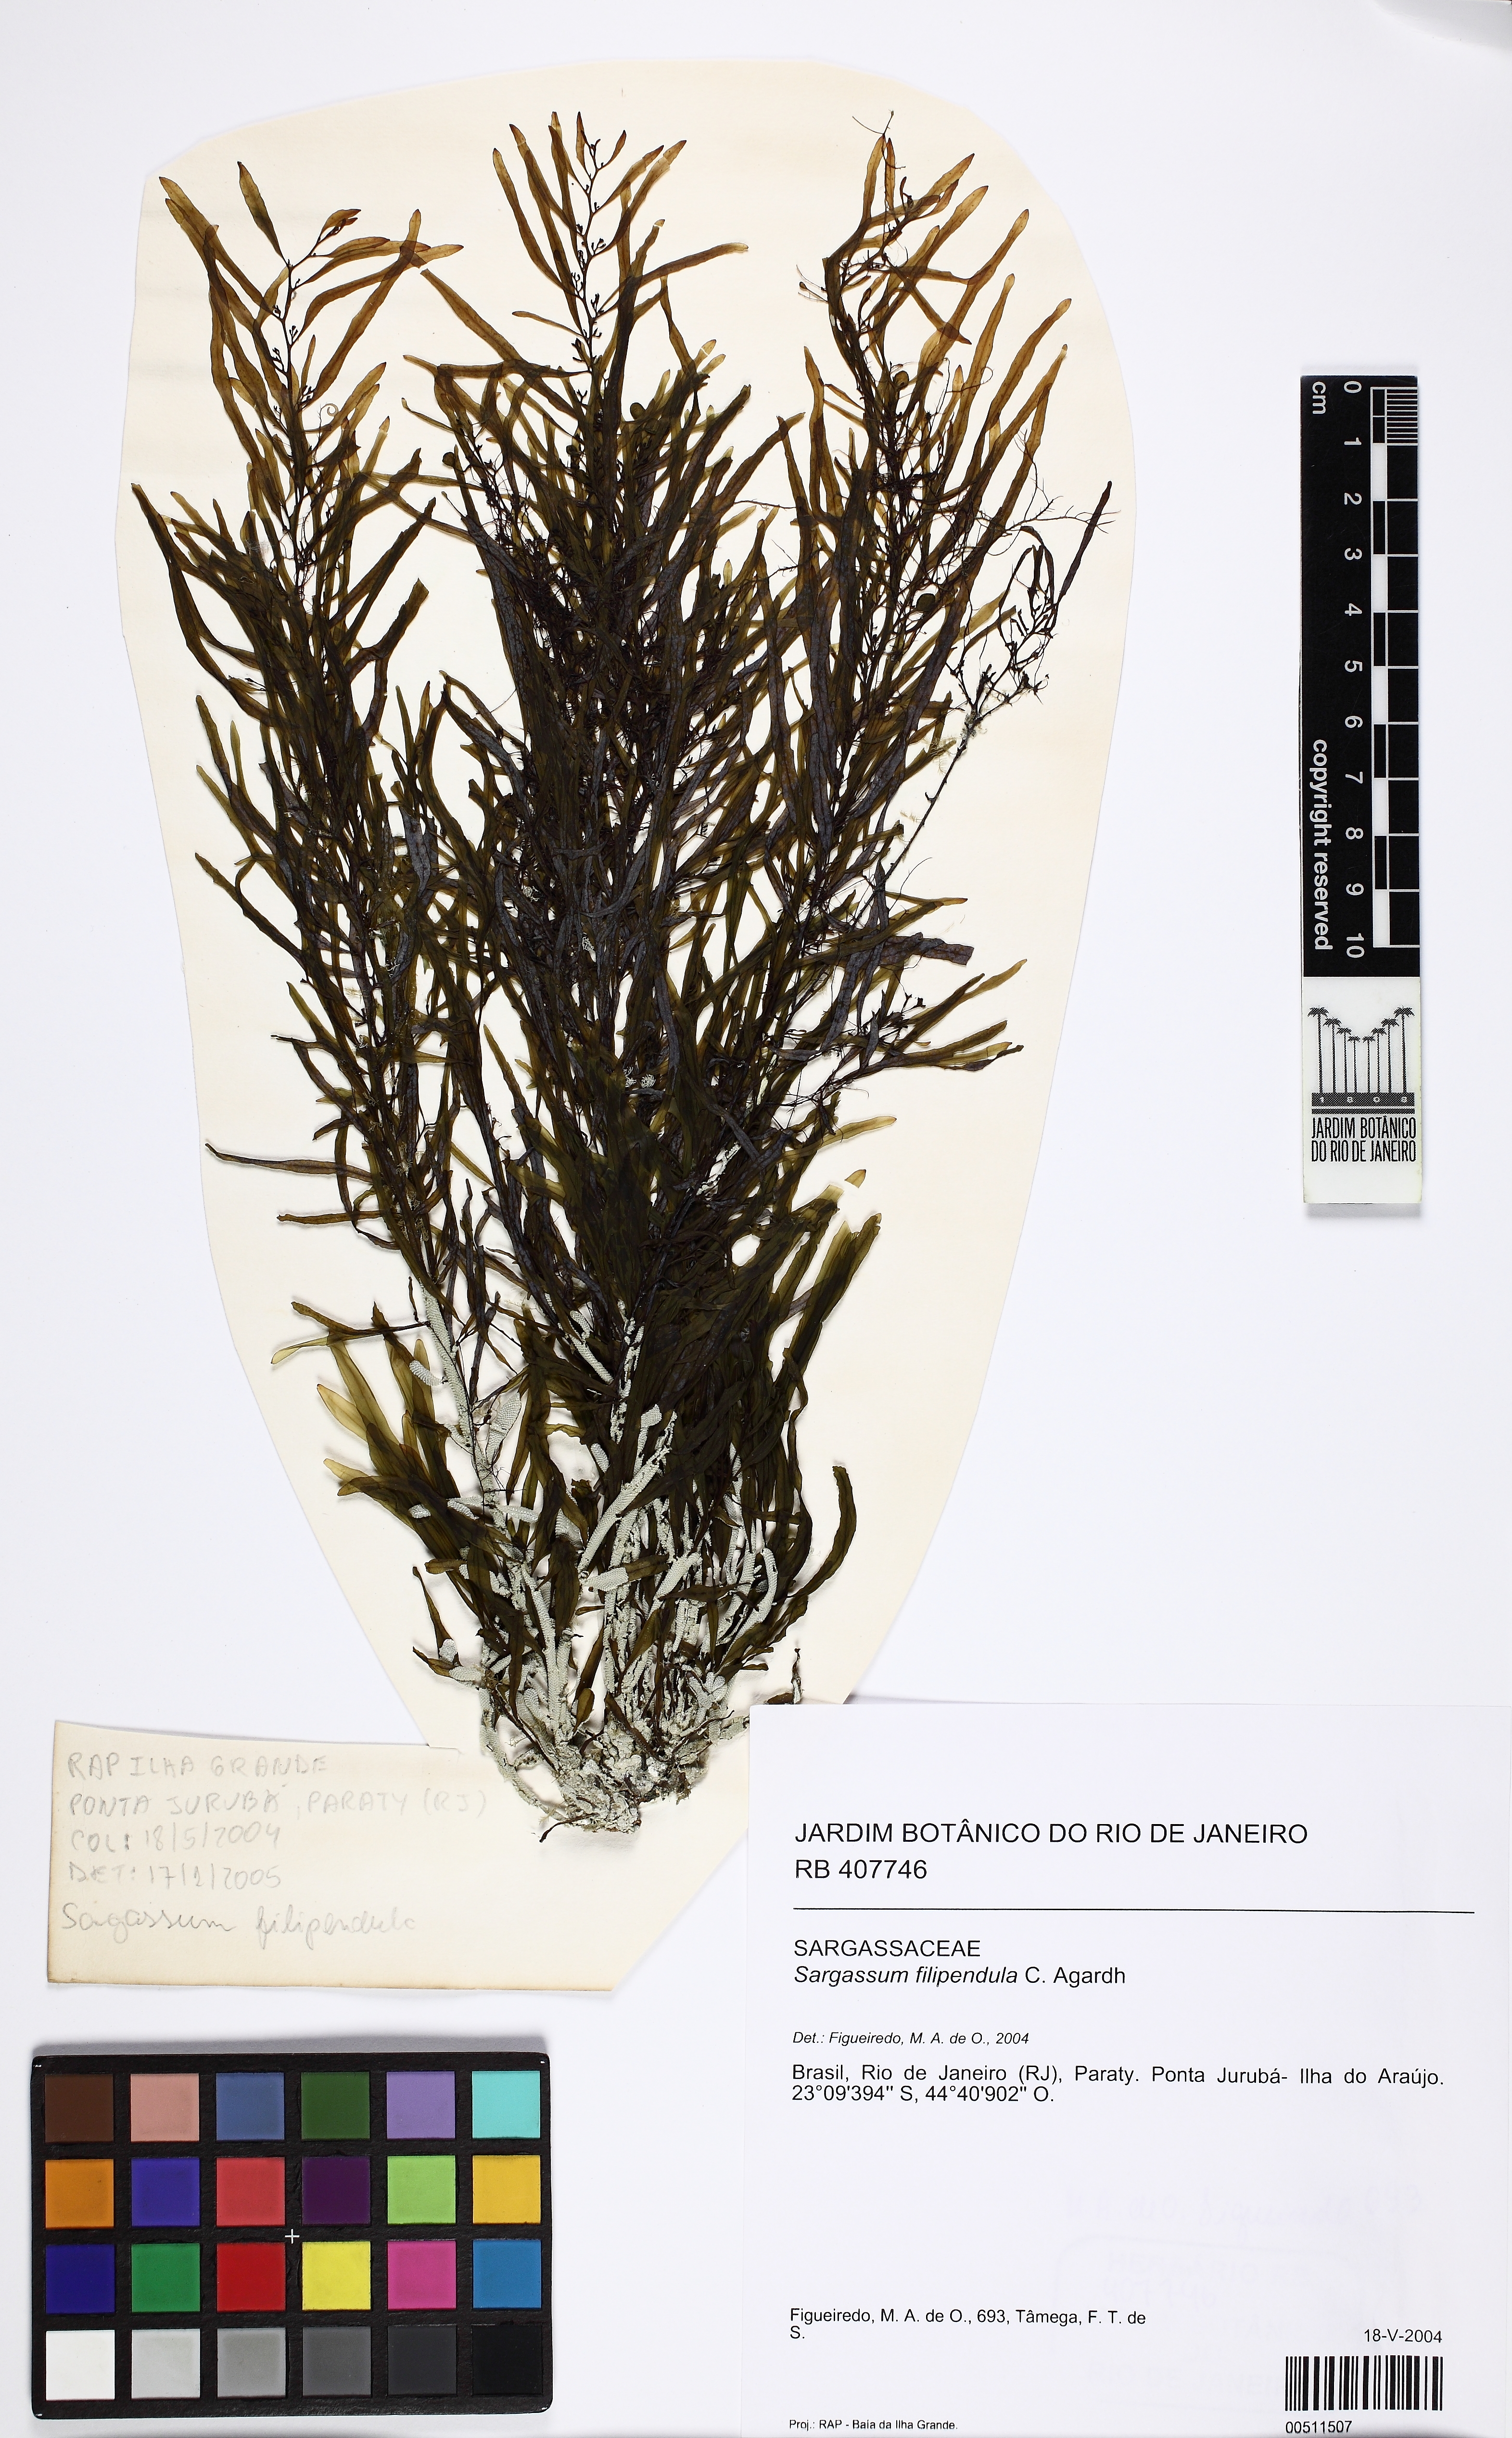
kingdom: Chromista
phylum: Ochrophyta
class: Phaeophyceae
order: Fucales
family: Sargassaceae
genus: Sargassum
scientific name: Sargassum filipendula
